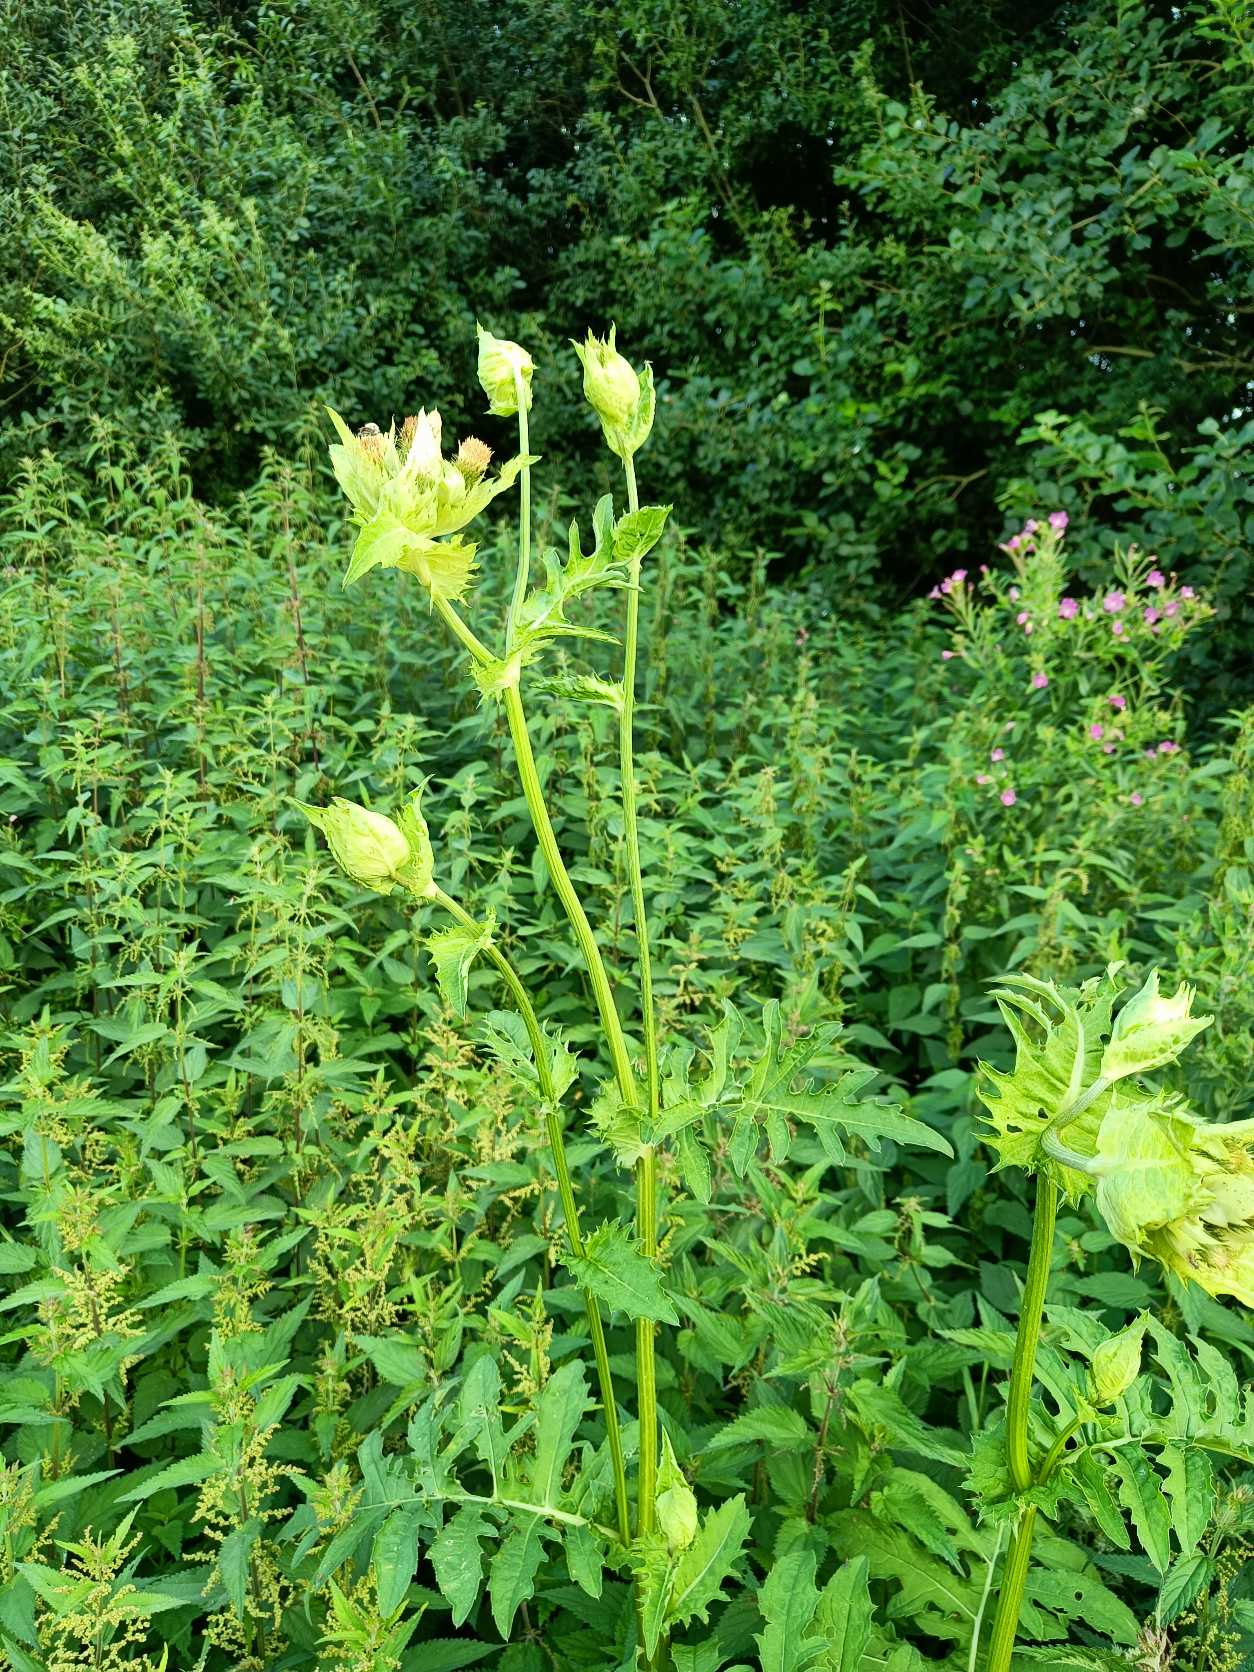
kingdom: Plantae
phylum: Tracheophyta
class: Magnoliopsida
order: Asterales
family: Asteraceae
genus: Cirsium
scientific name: Cirsium oleraceum
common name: Kål-tidsel
